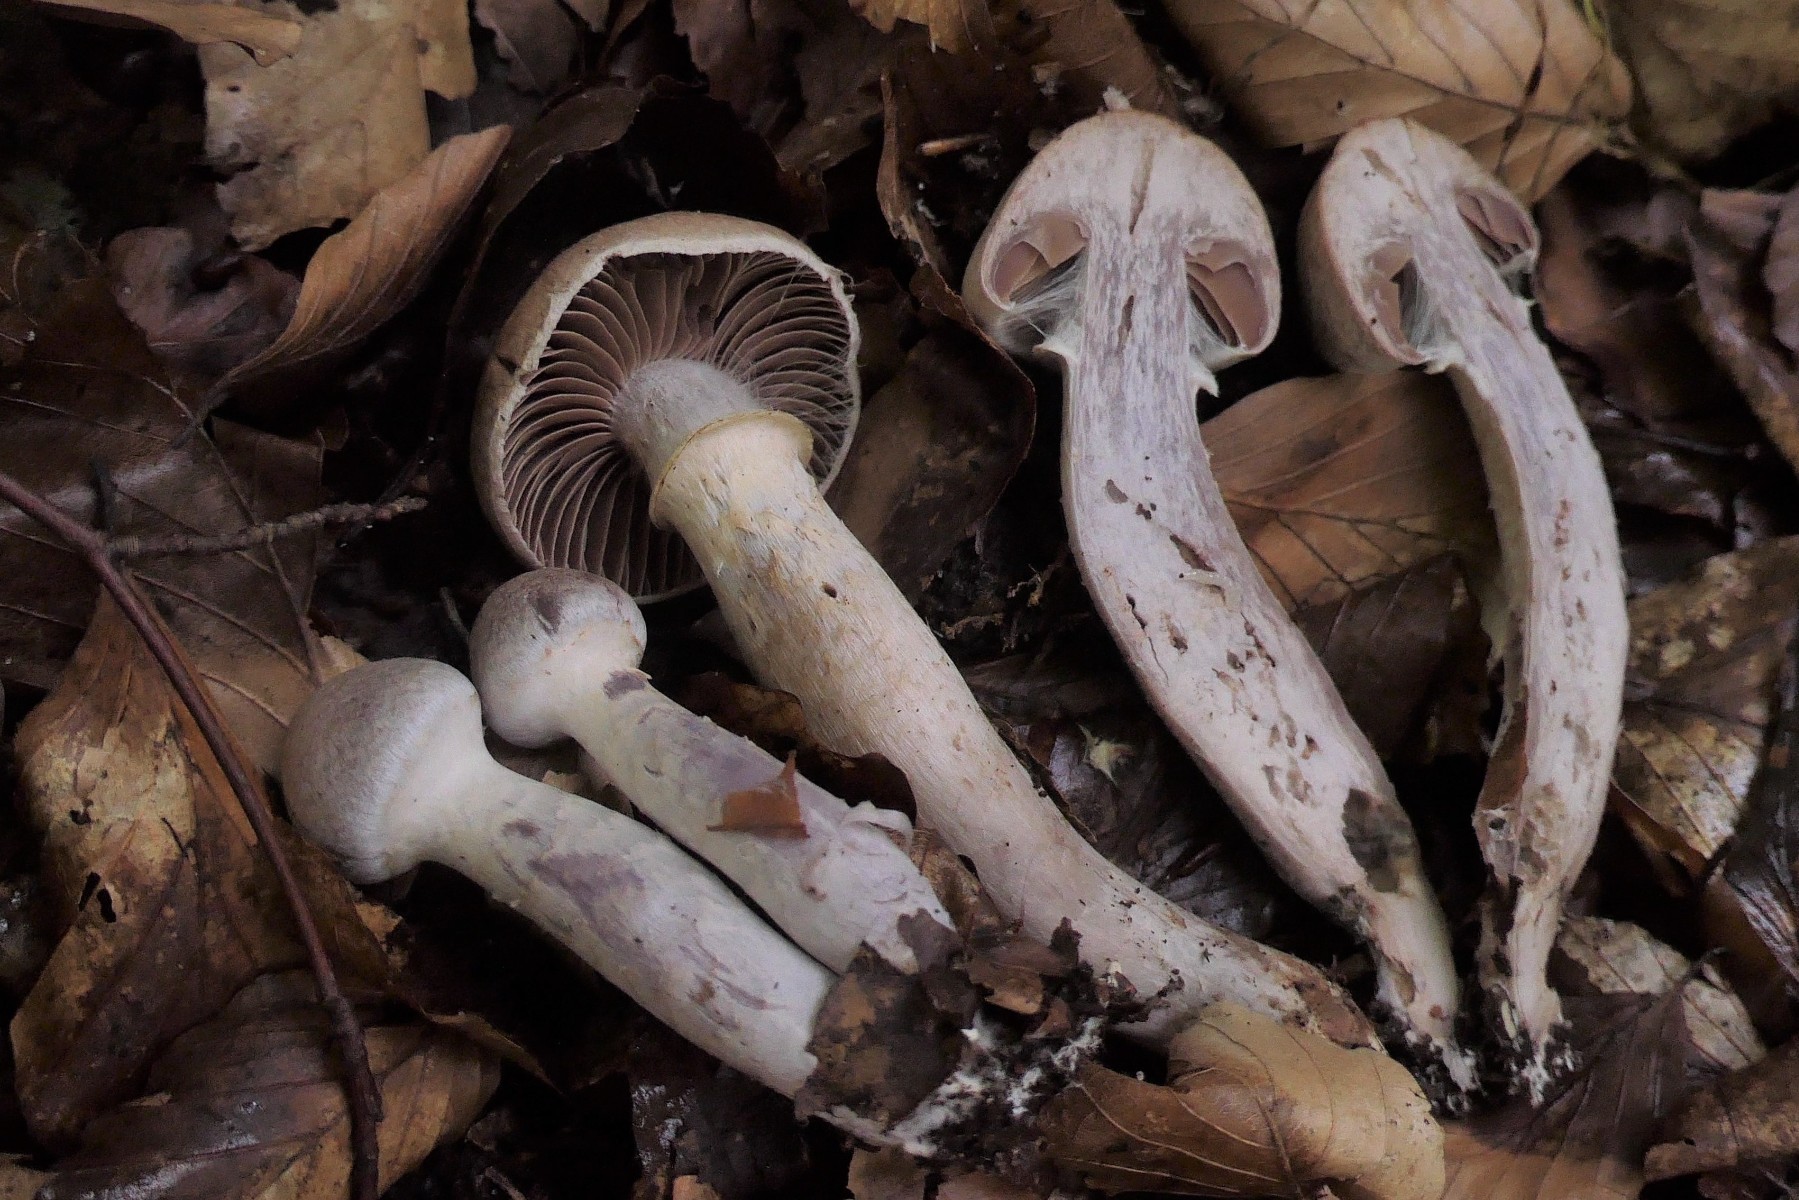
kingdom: Fungi
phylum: Basidiomycota
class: Agaricomycetes
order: Agaricales
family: Cortinariaceae
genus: Cortinarius
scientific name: Cortinarius torvus
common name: champignonagtig slørhat
